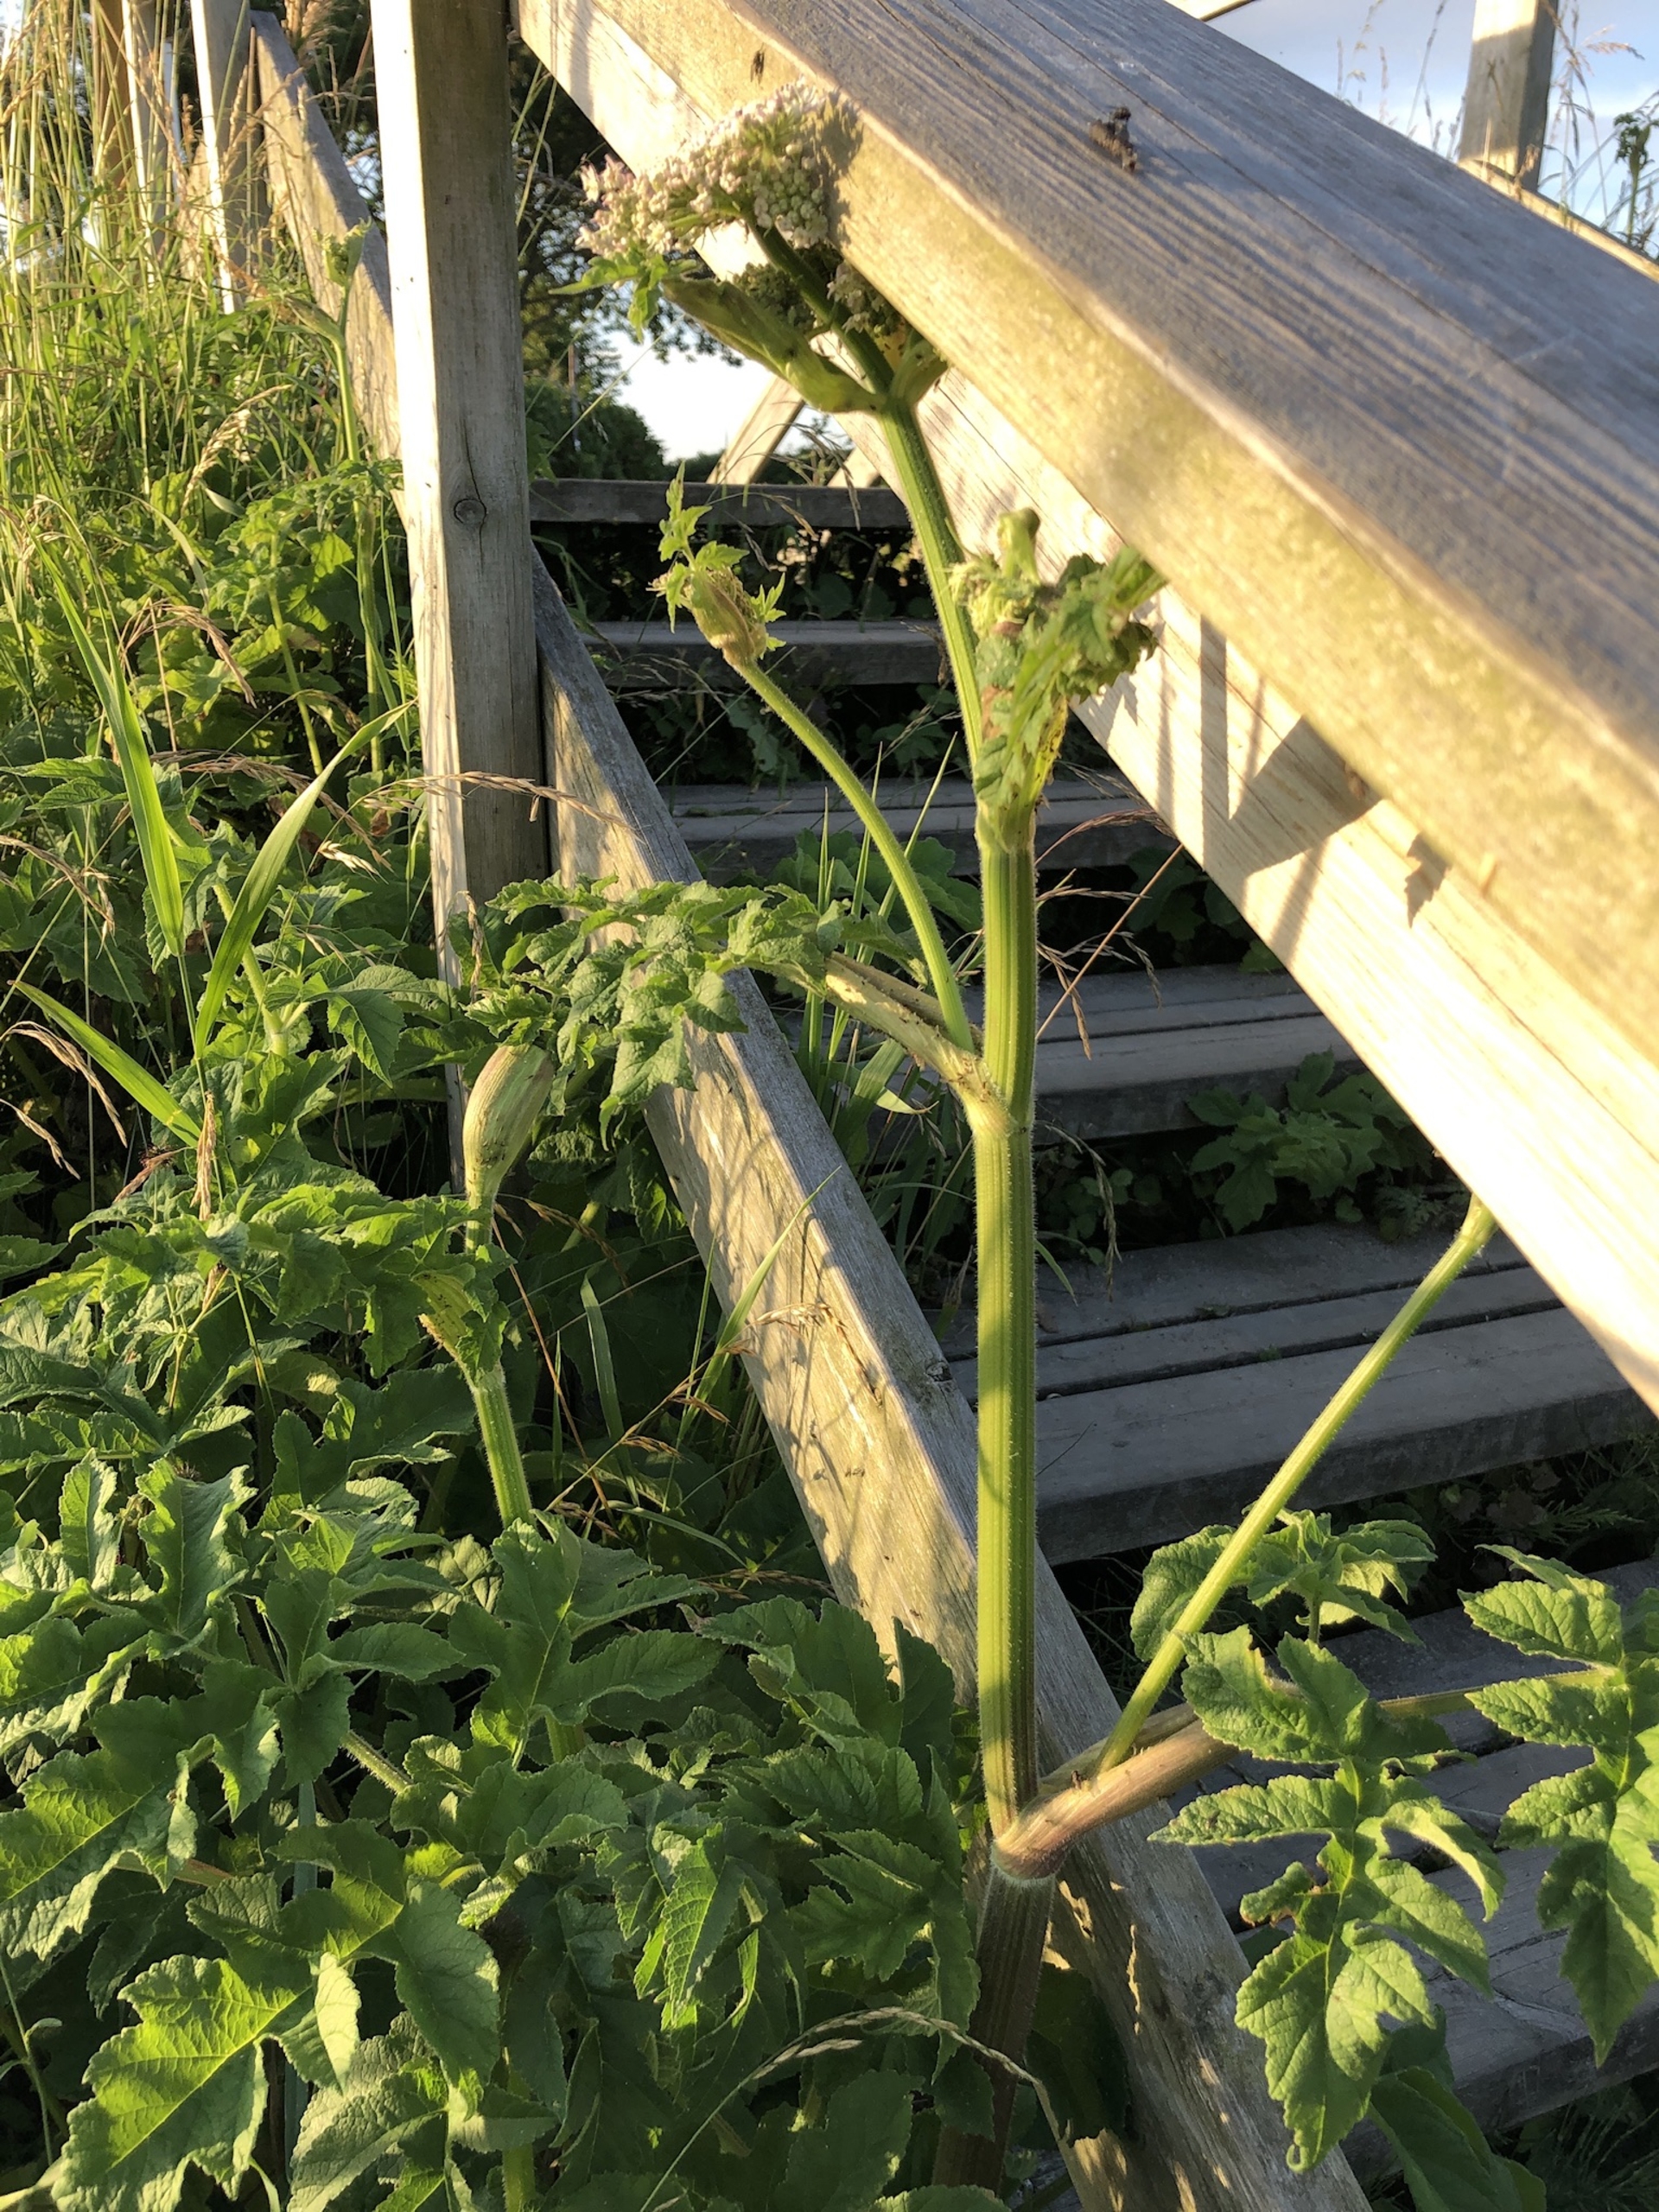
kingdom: Plantae
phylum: Tracheophyta
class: Magnoliopsida
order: Apiales
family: Apiaceae
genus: Heracleum
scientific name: Heracleum sphondylium
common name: Almindelig bjørneklo
